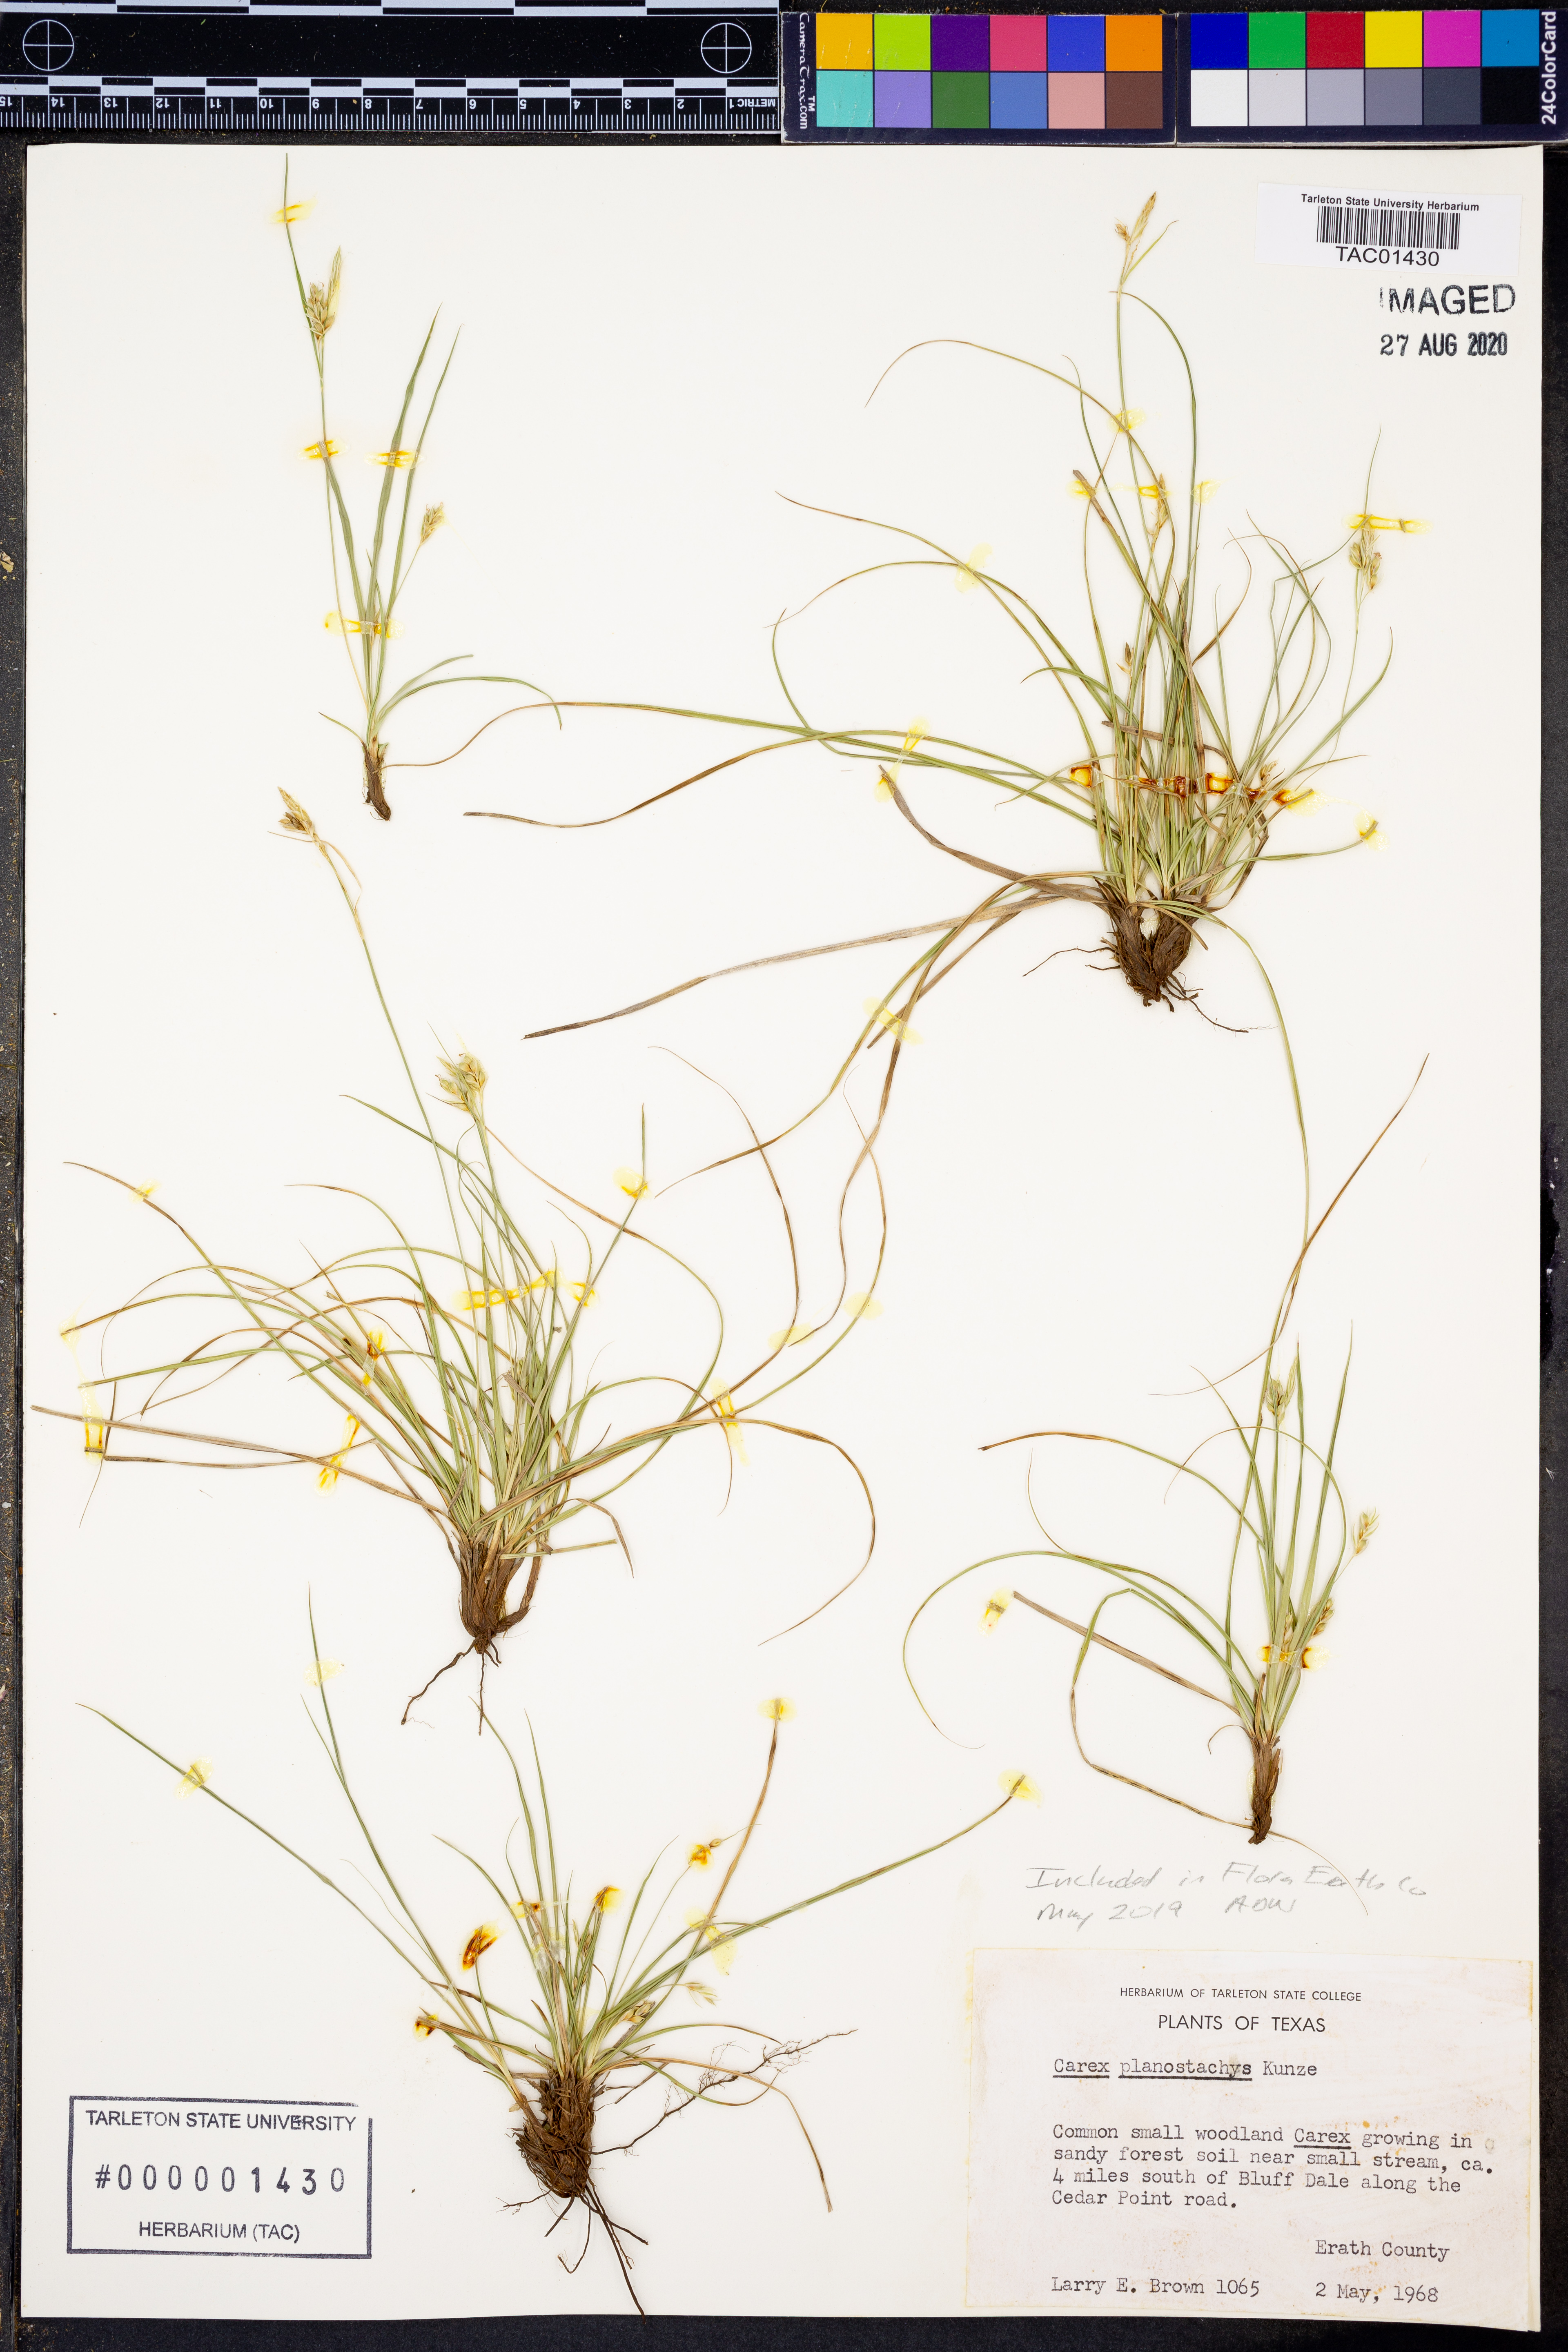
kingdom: Plantae
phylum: Tracheophyta
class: Liliopsida
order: Poales
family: Cyperaceae
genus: Carex
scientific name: Carex planostachys
